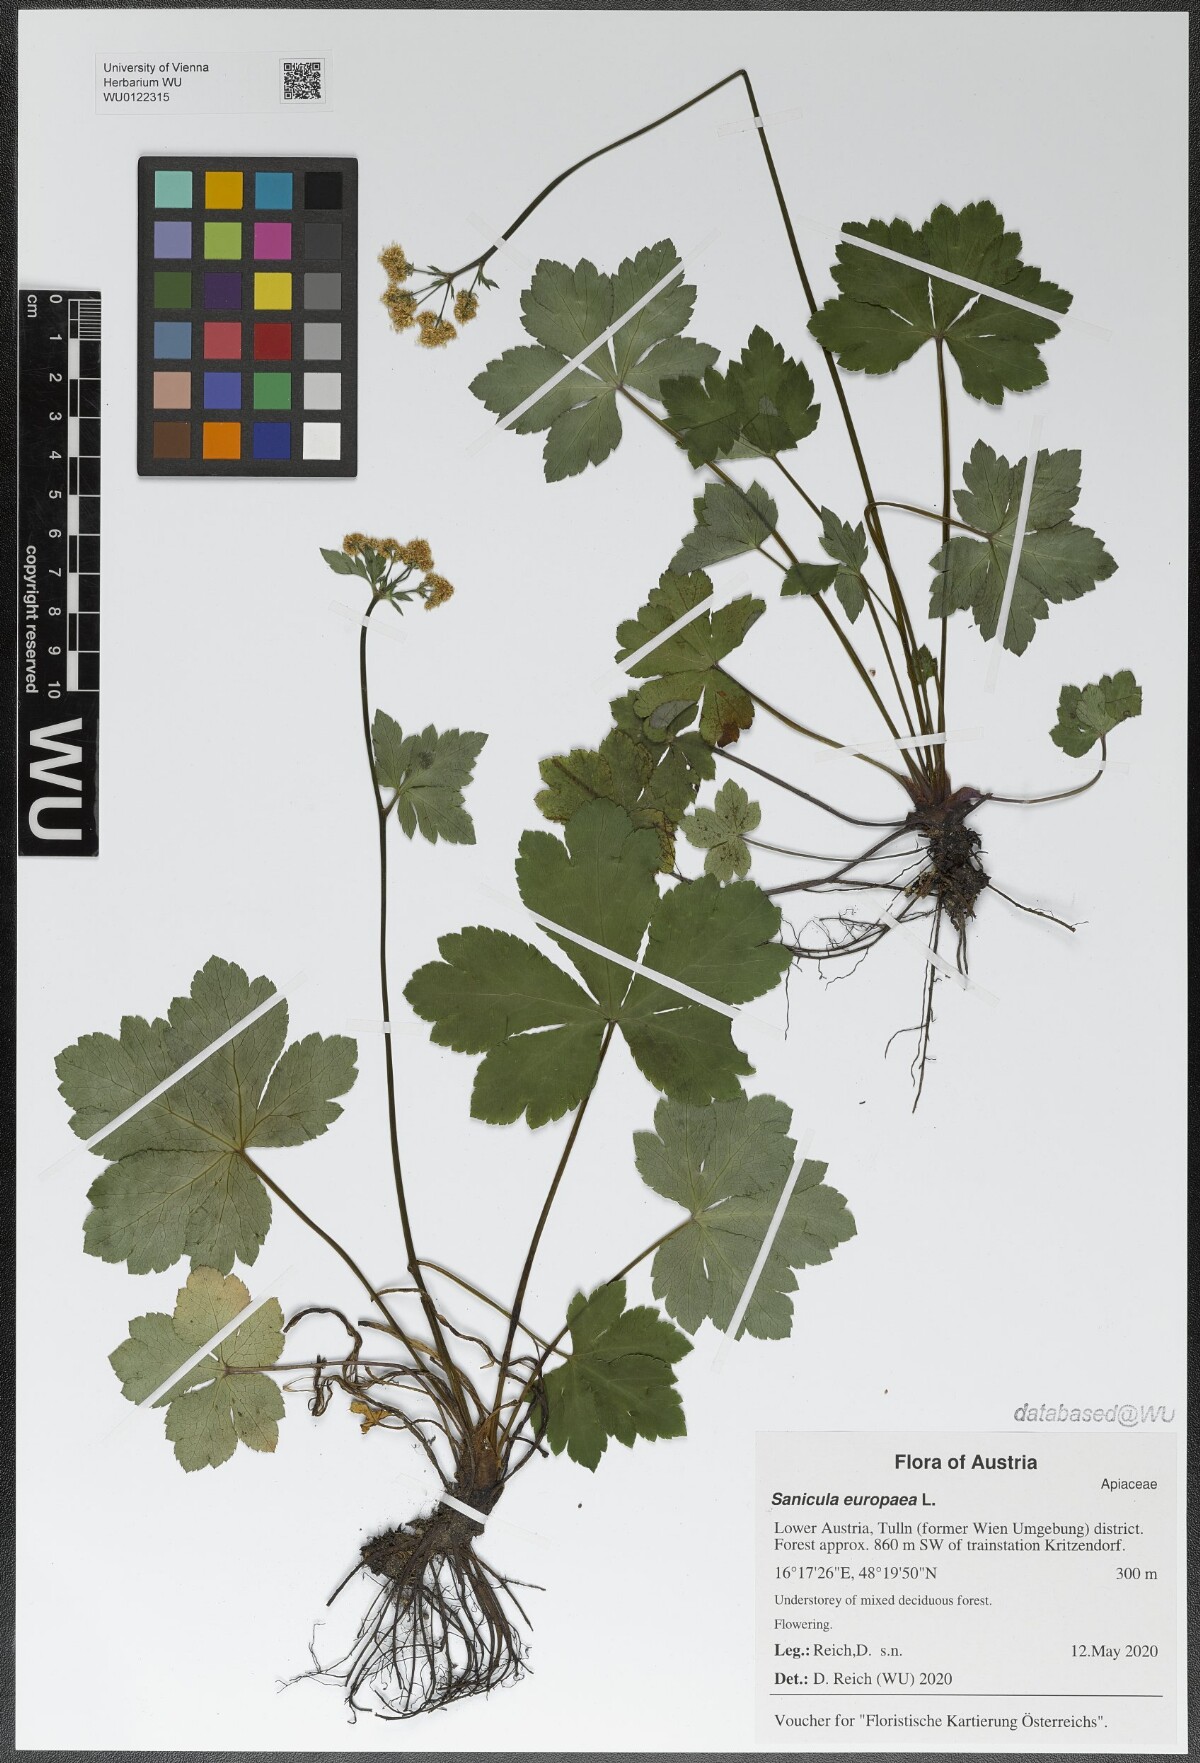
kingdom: Plantae
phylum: Tracheophyta
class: Magnoliopsida
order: Apiales
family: Apiaceae
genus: Sanicula
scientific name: Sanicula europaea
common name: Sanicle
